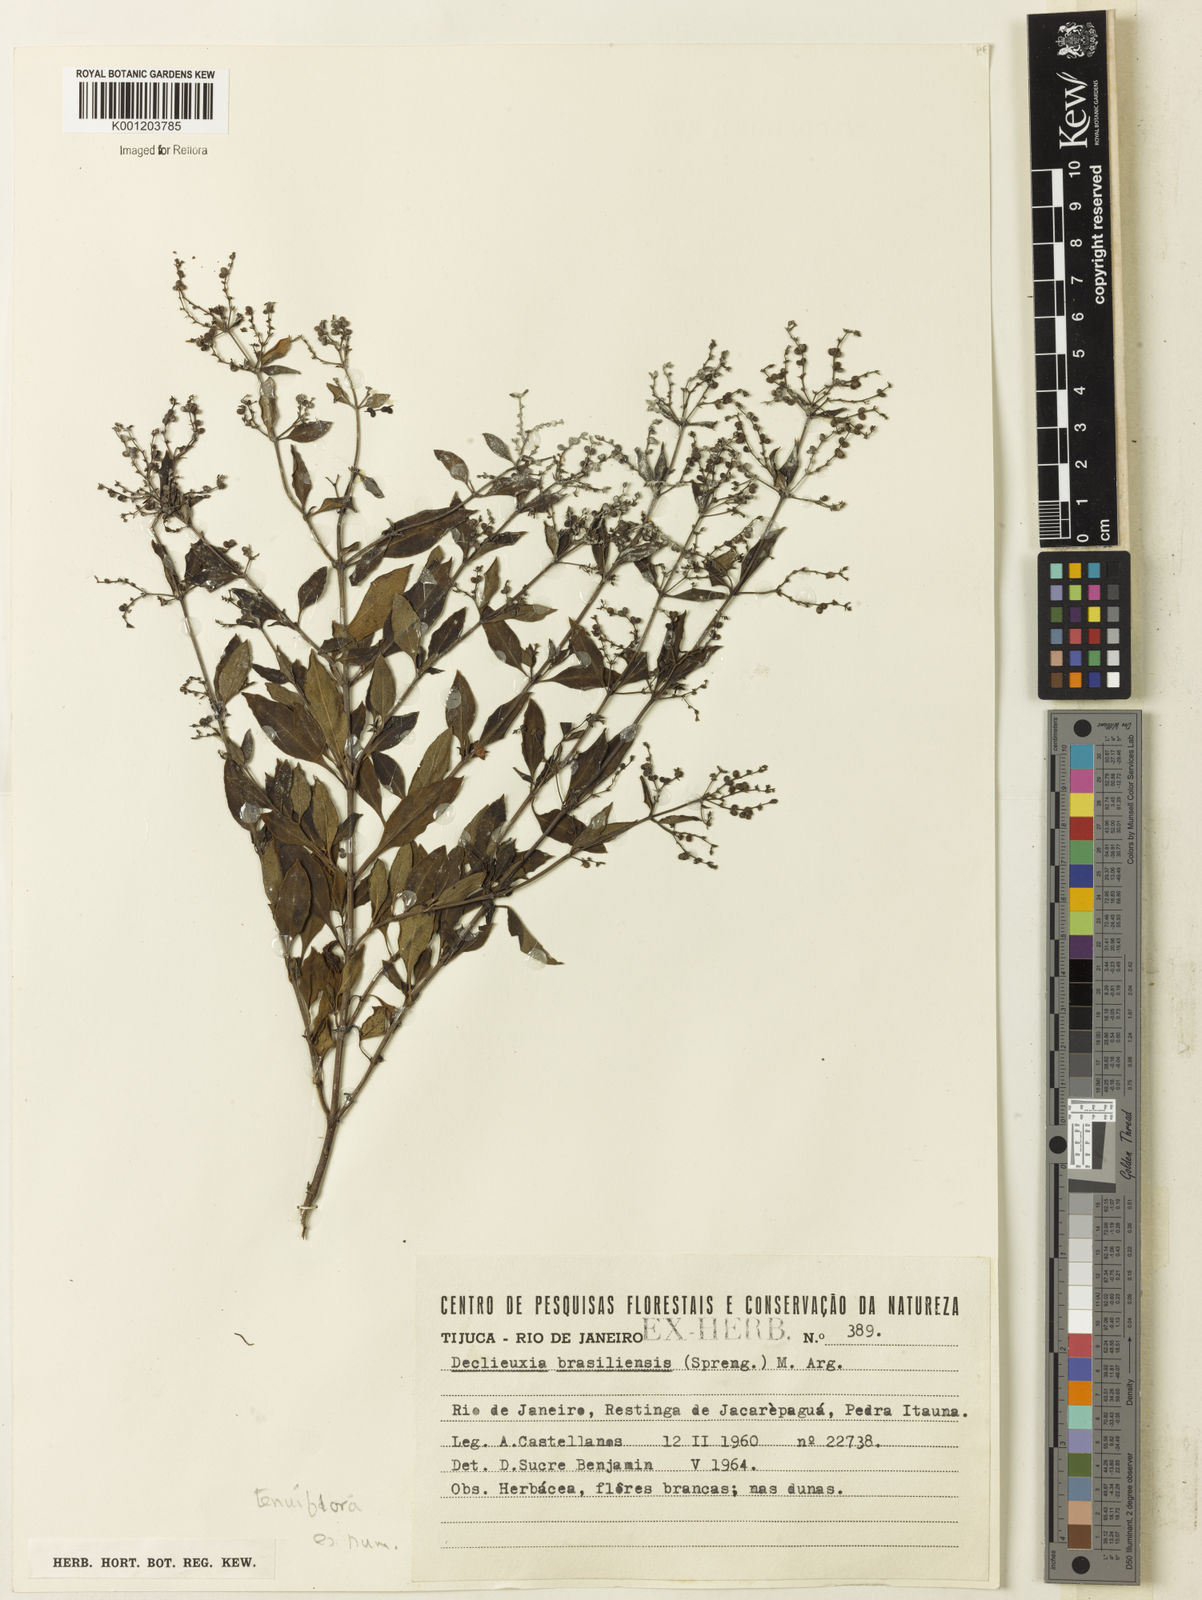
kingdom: Plantae
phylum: Tracheophyta
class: Magnoliopsida
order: Gentianales
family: Rubiaceae
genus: Declieuxia
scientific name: Declieuxia tenuiflora
